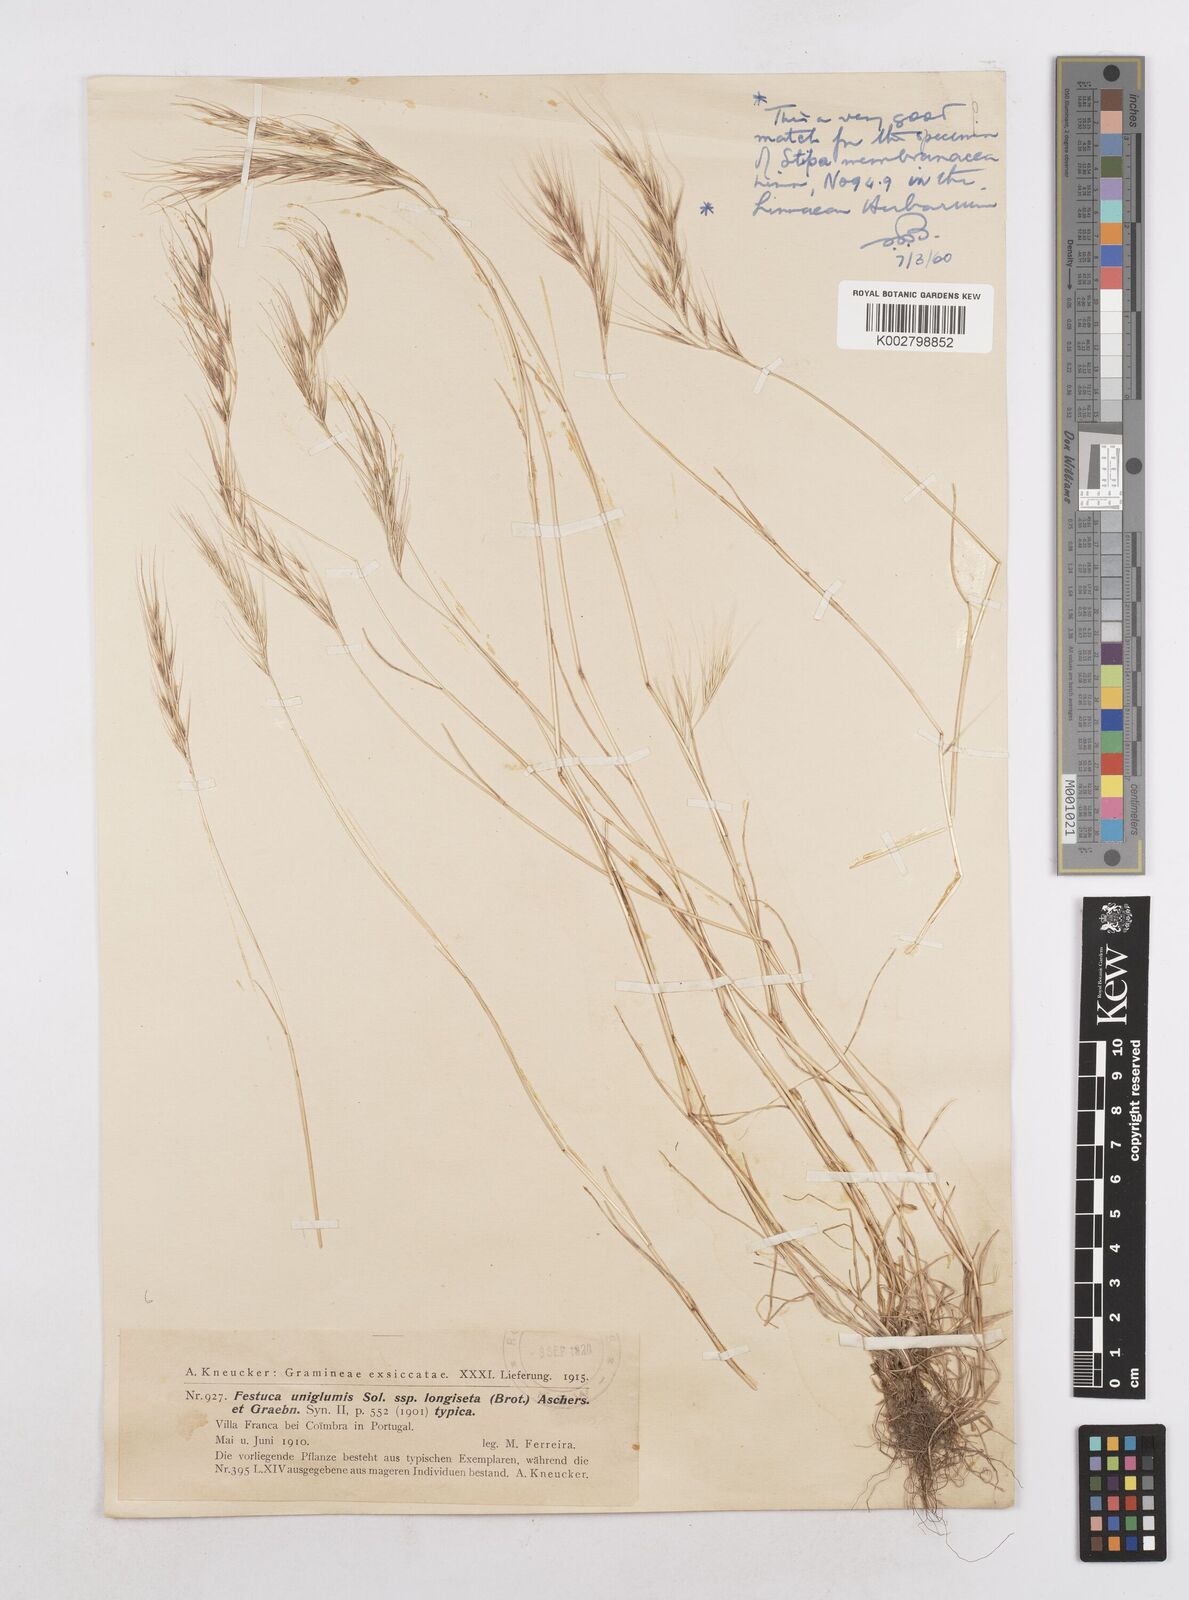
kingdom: Plantae
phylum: Tracheophyta
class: Liliopsida
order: Poales
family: Poaceae
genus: Festuca
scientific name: Festuca membranacea
